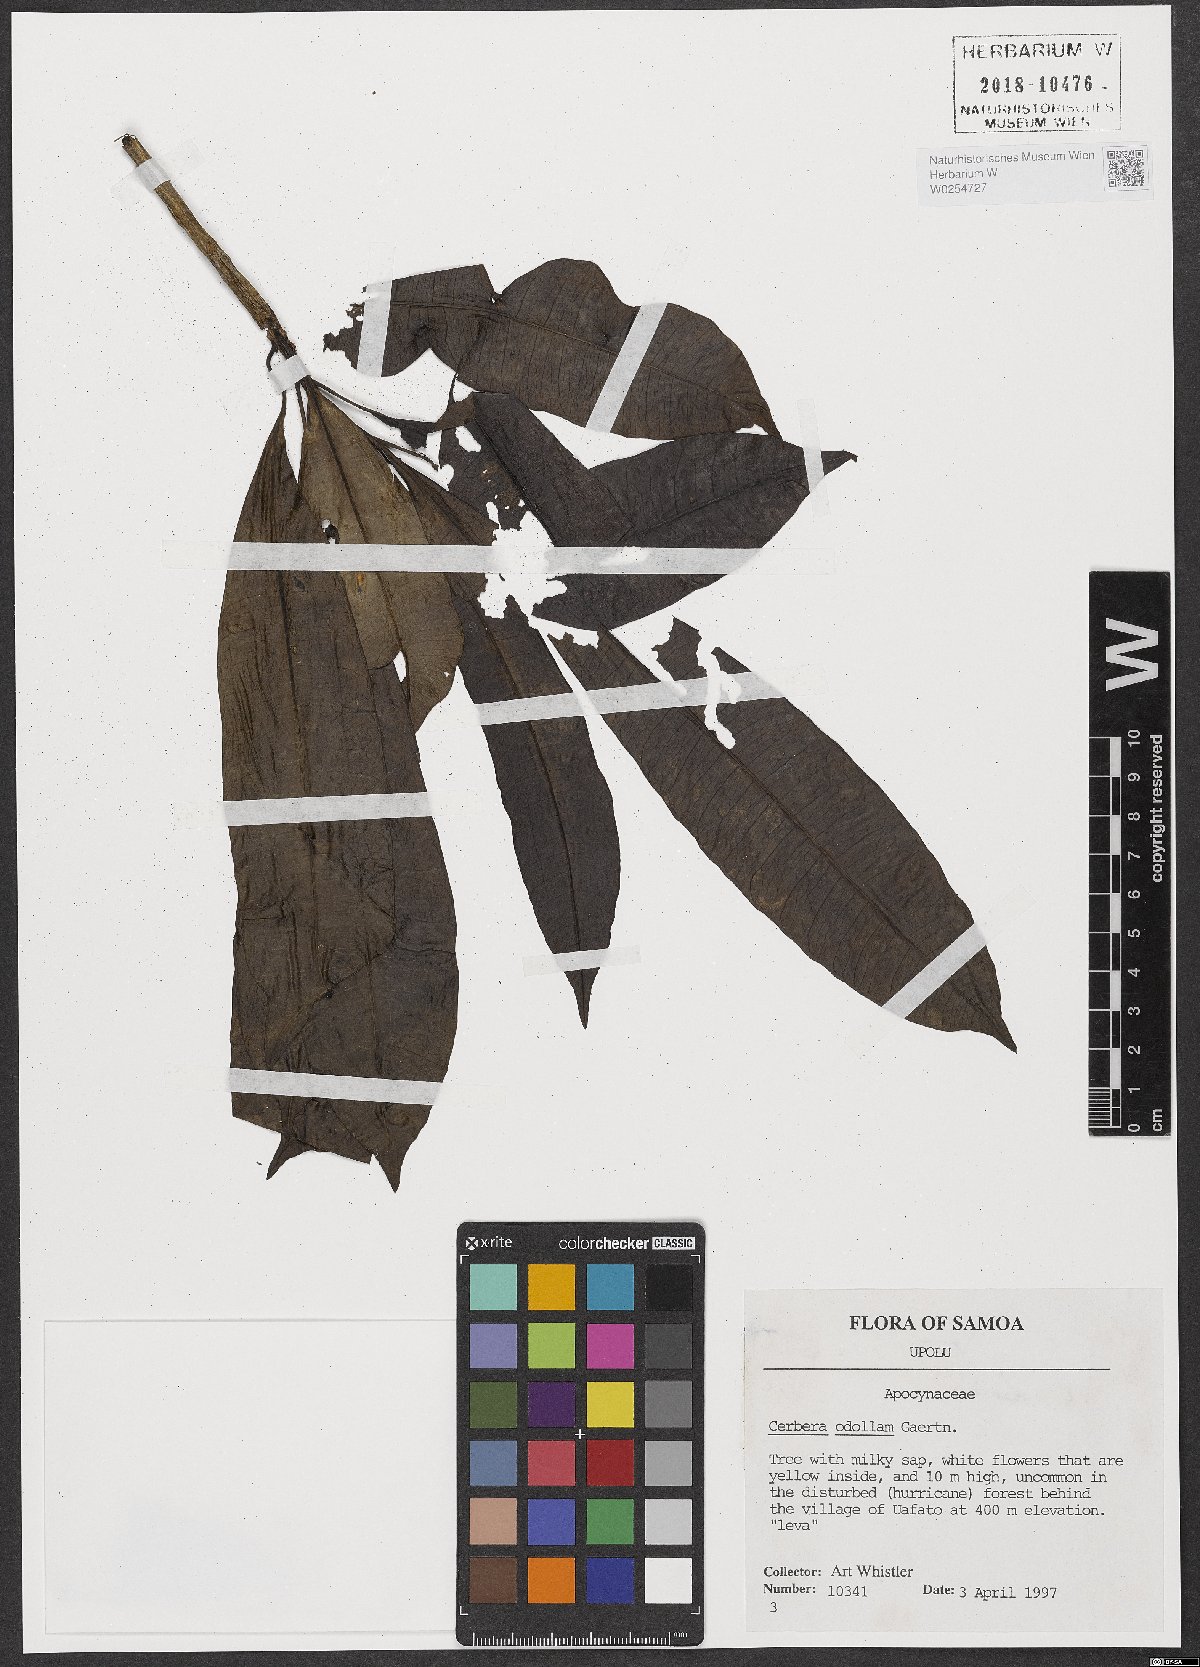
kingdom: Plantae
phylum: Tracheophyta
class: Magnoliopsida
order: Gentianales
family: Apocynaceae
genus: Cerbera
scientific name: Cerbera odollam
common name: Pong-pong
